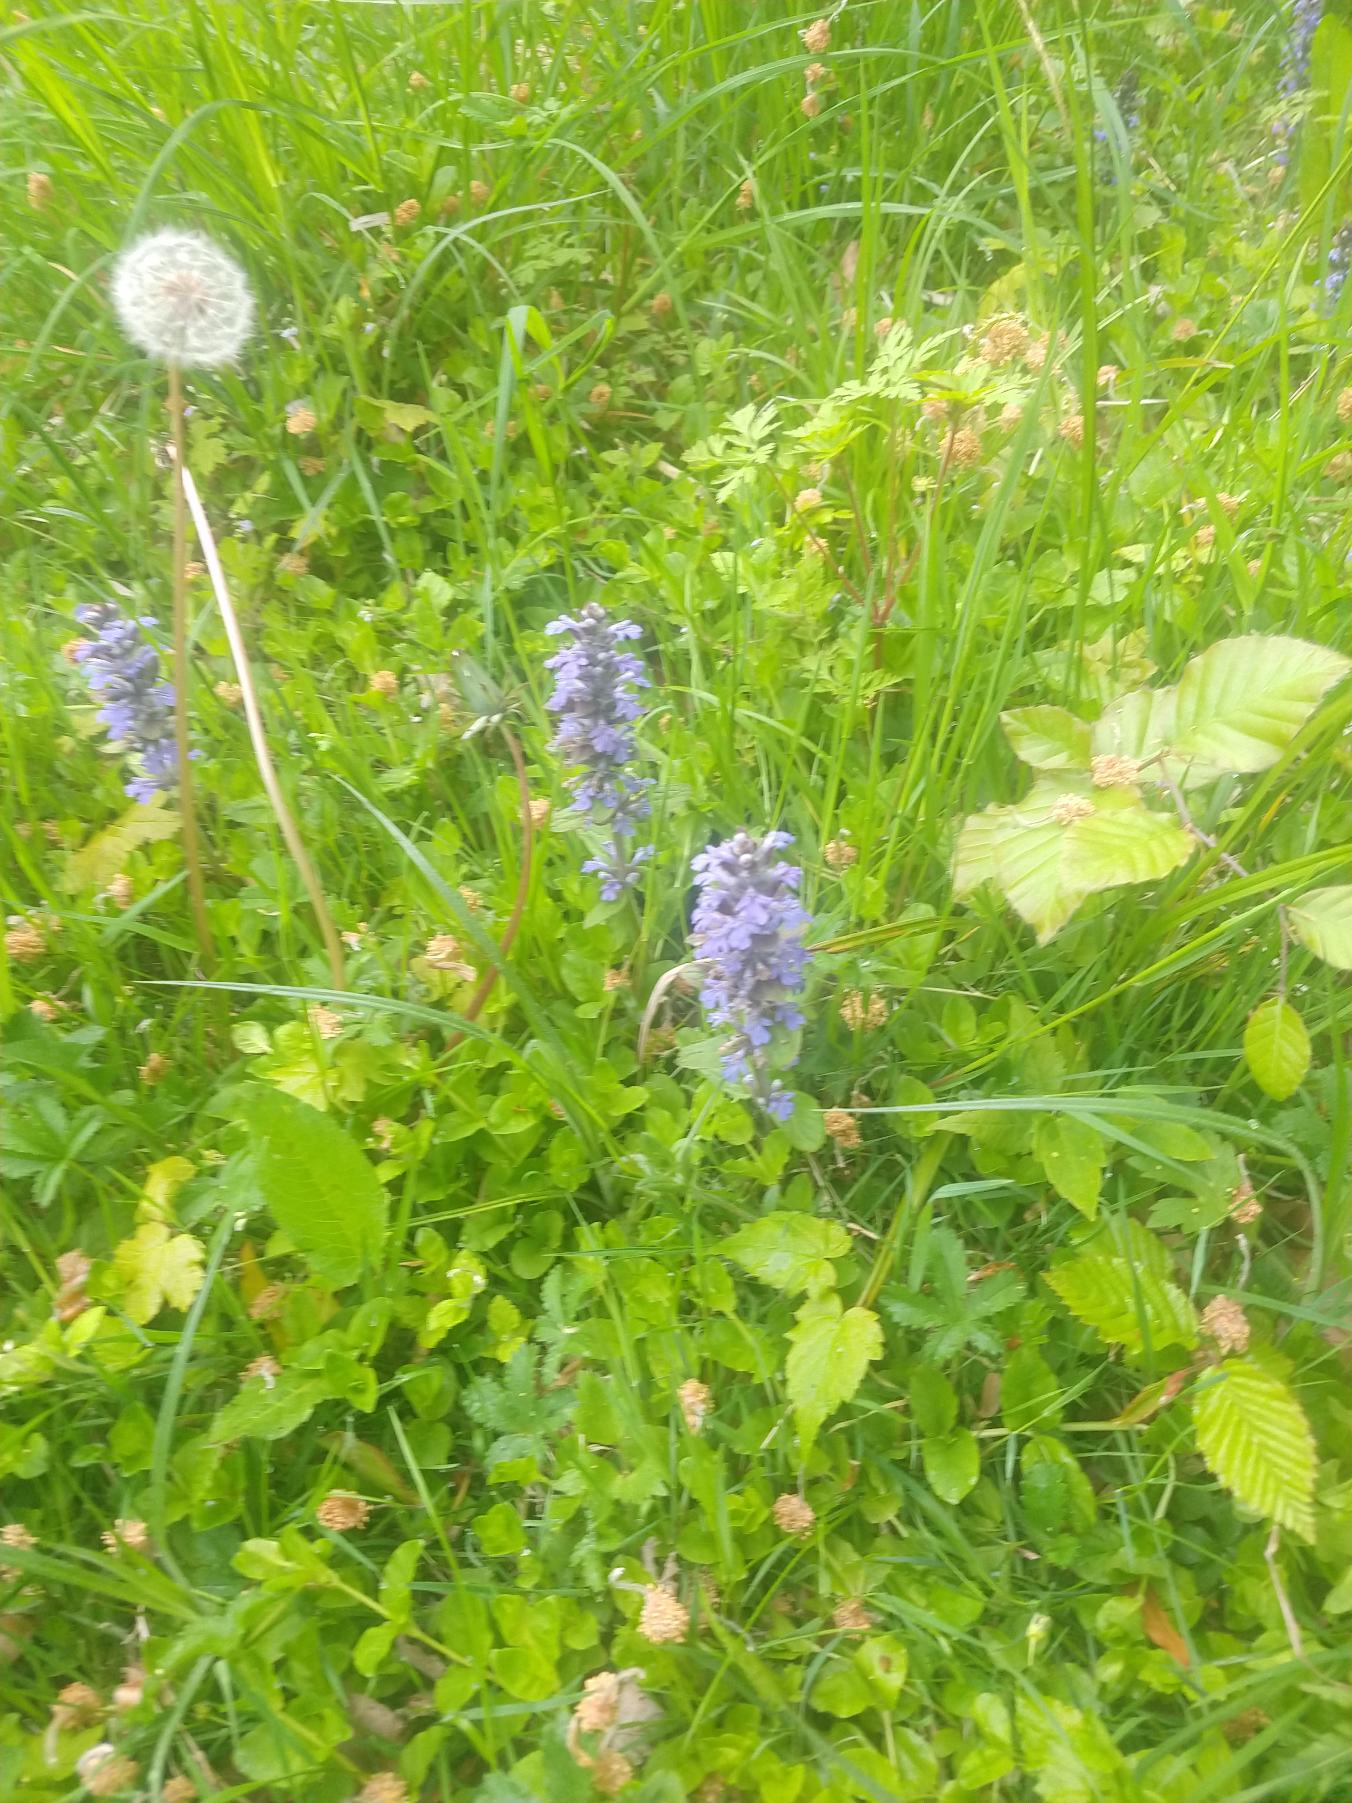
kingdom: Plantae
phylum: Tracheophyta
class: Magnoliopsida
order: Lamiales
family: Lamiaceae
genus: Ajuga
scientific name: Ajuga reptans
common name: Krybende læbeløs
